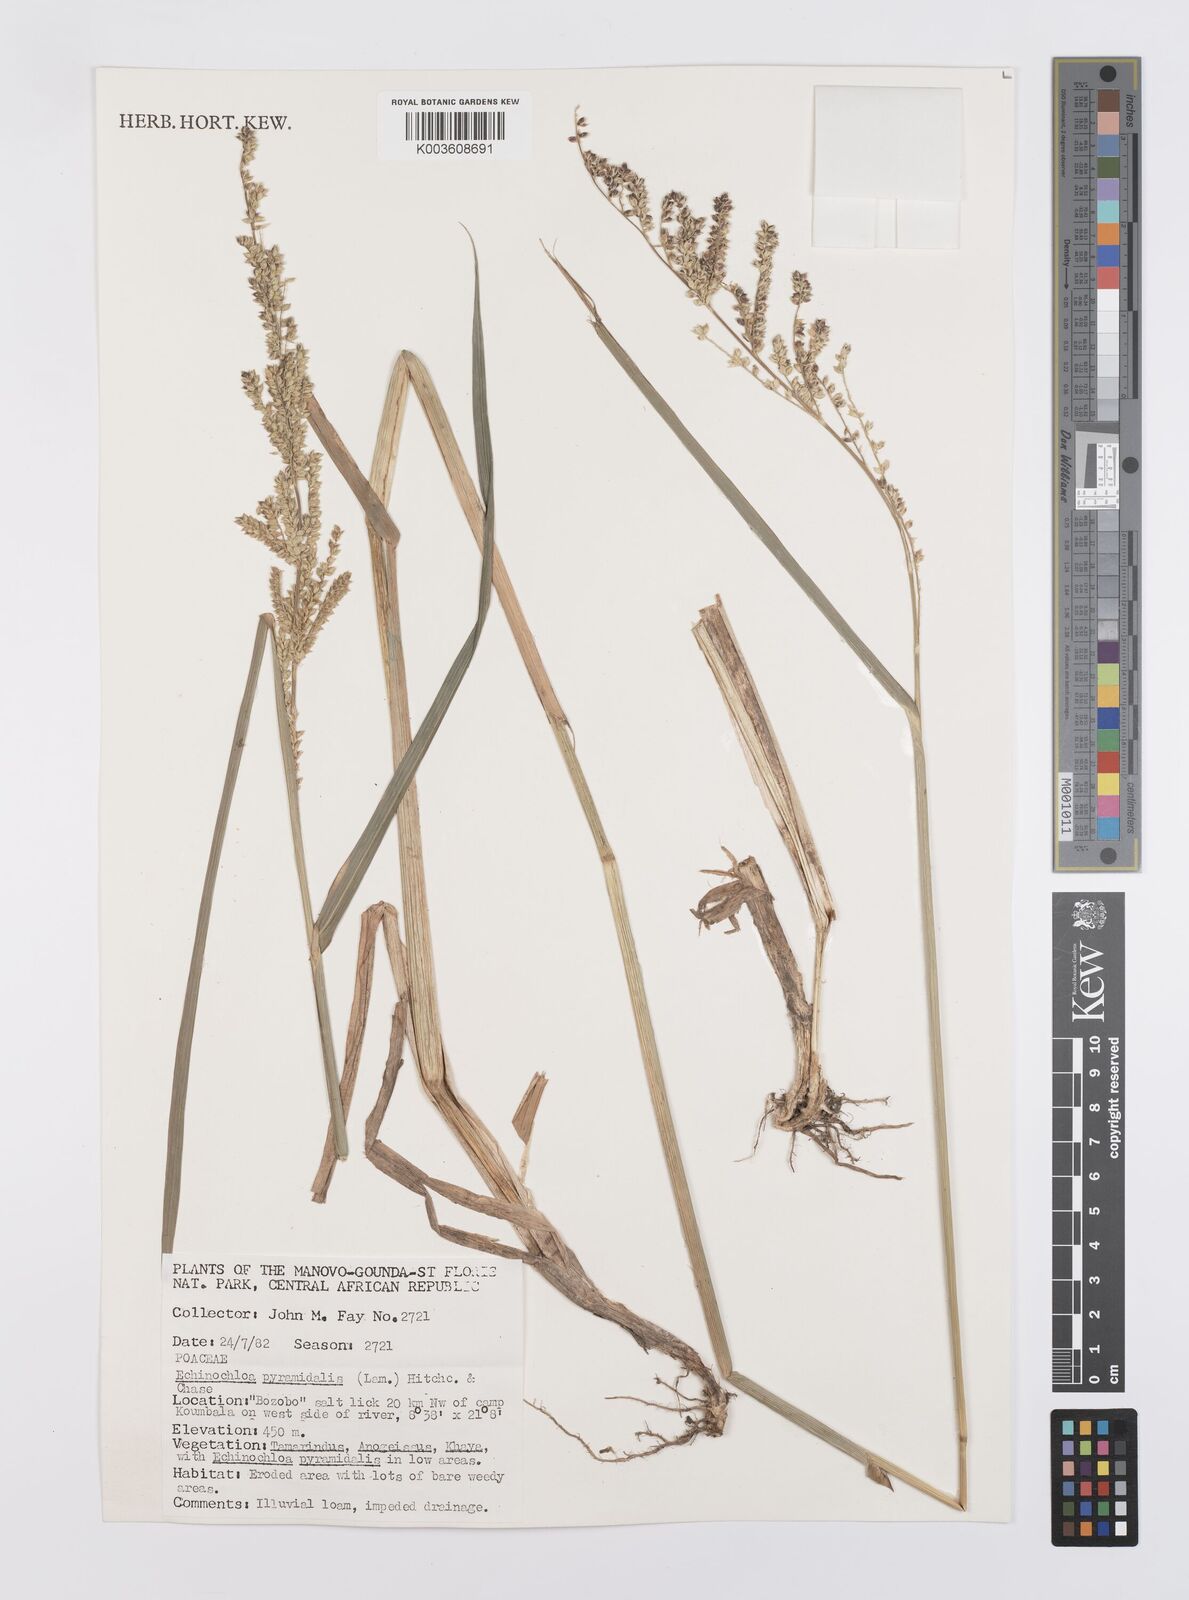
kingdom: Plantae
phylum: Tracheophyta
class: Liliopsida
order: Poales
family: Poaceae
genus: Echinochloa
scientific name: Echinochloa pyramidalis
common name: Antelope grass
